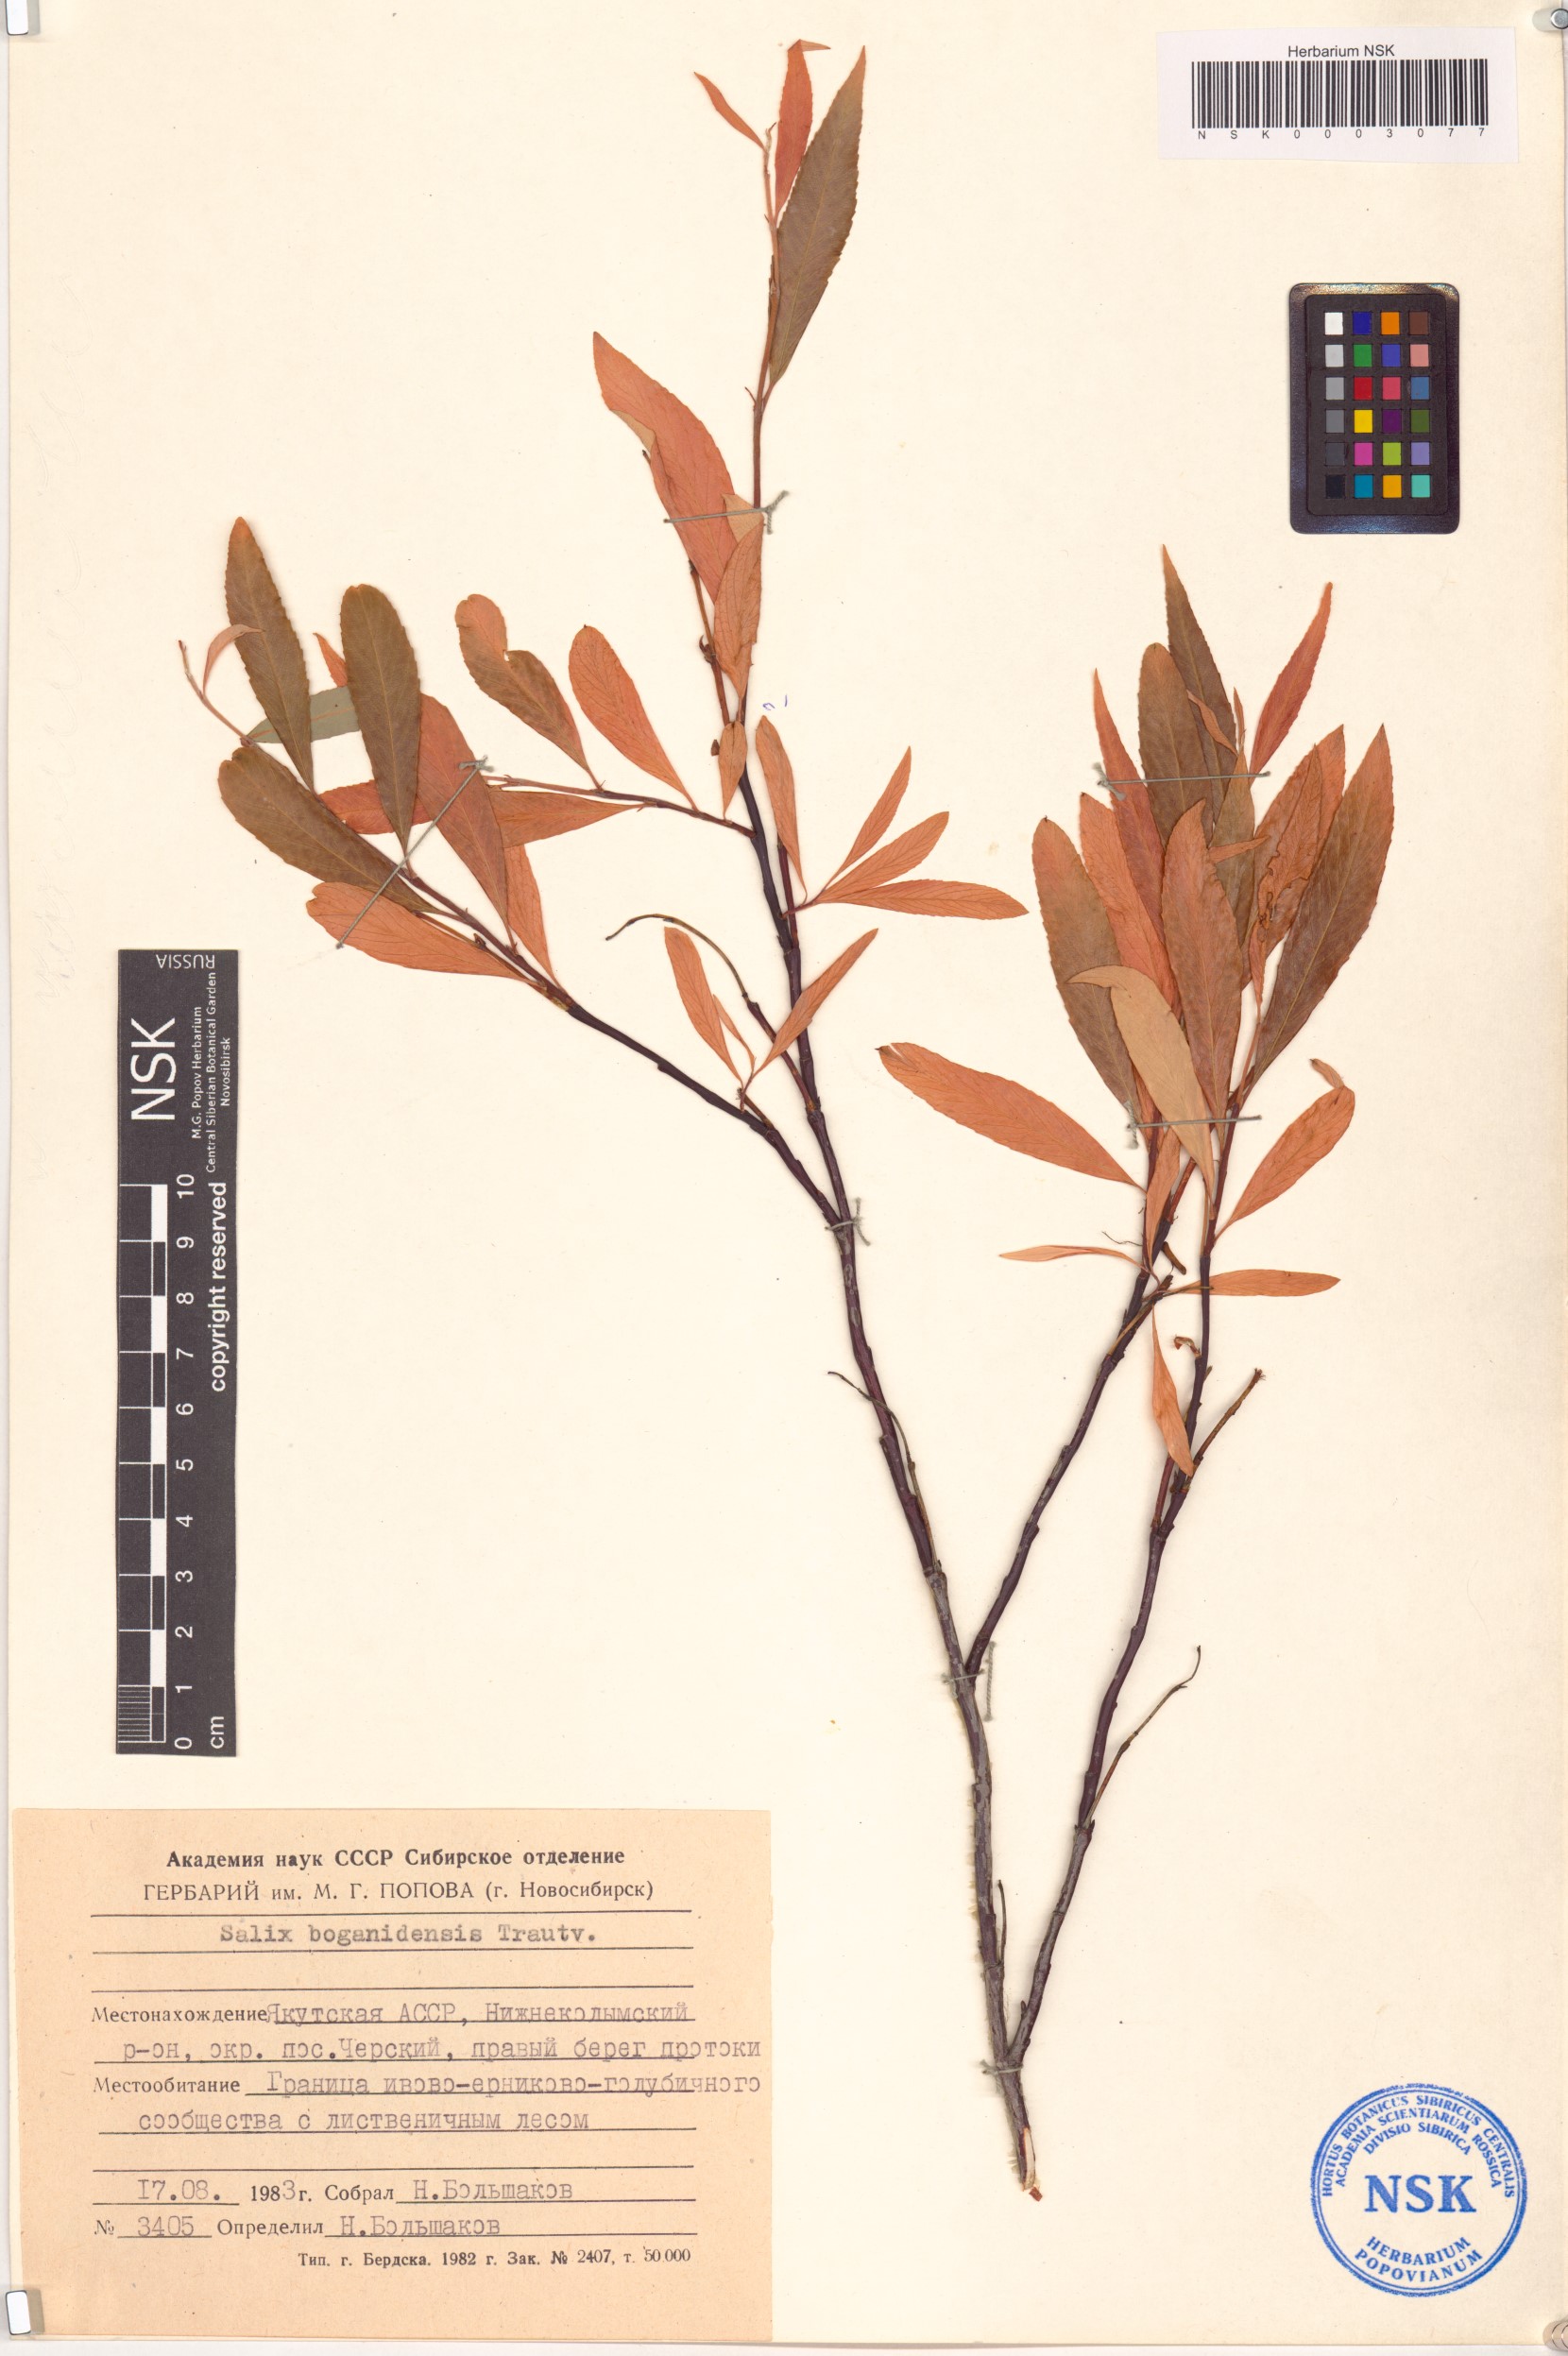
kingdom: Plantae
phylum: Tracheophyta
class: Magnoliopsida
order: Malpighiales
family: Salicaceae
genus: Salix
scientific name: Salix boganidensis
